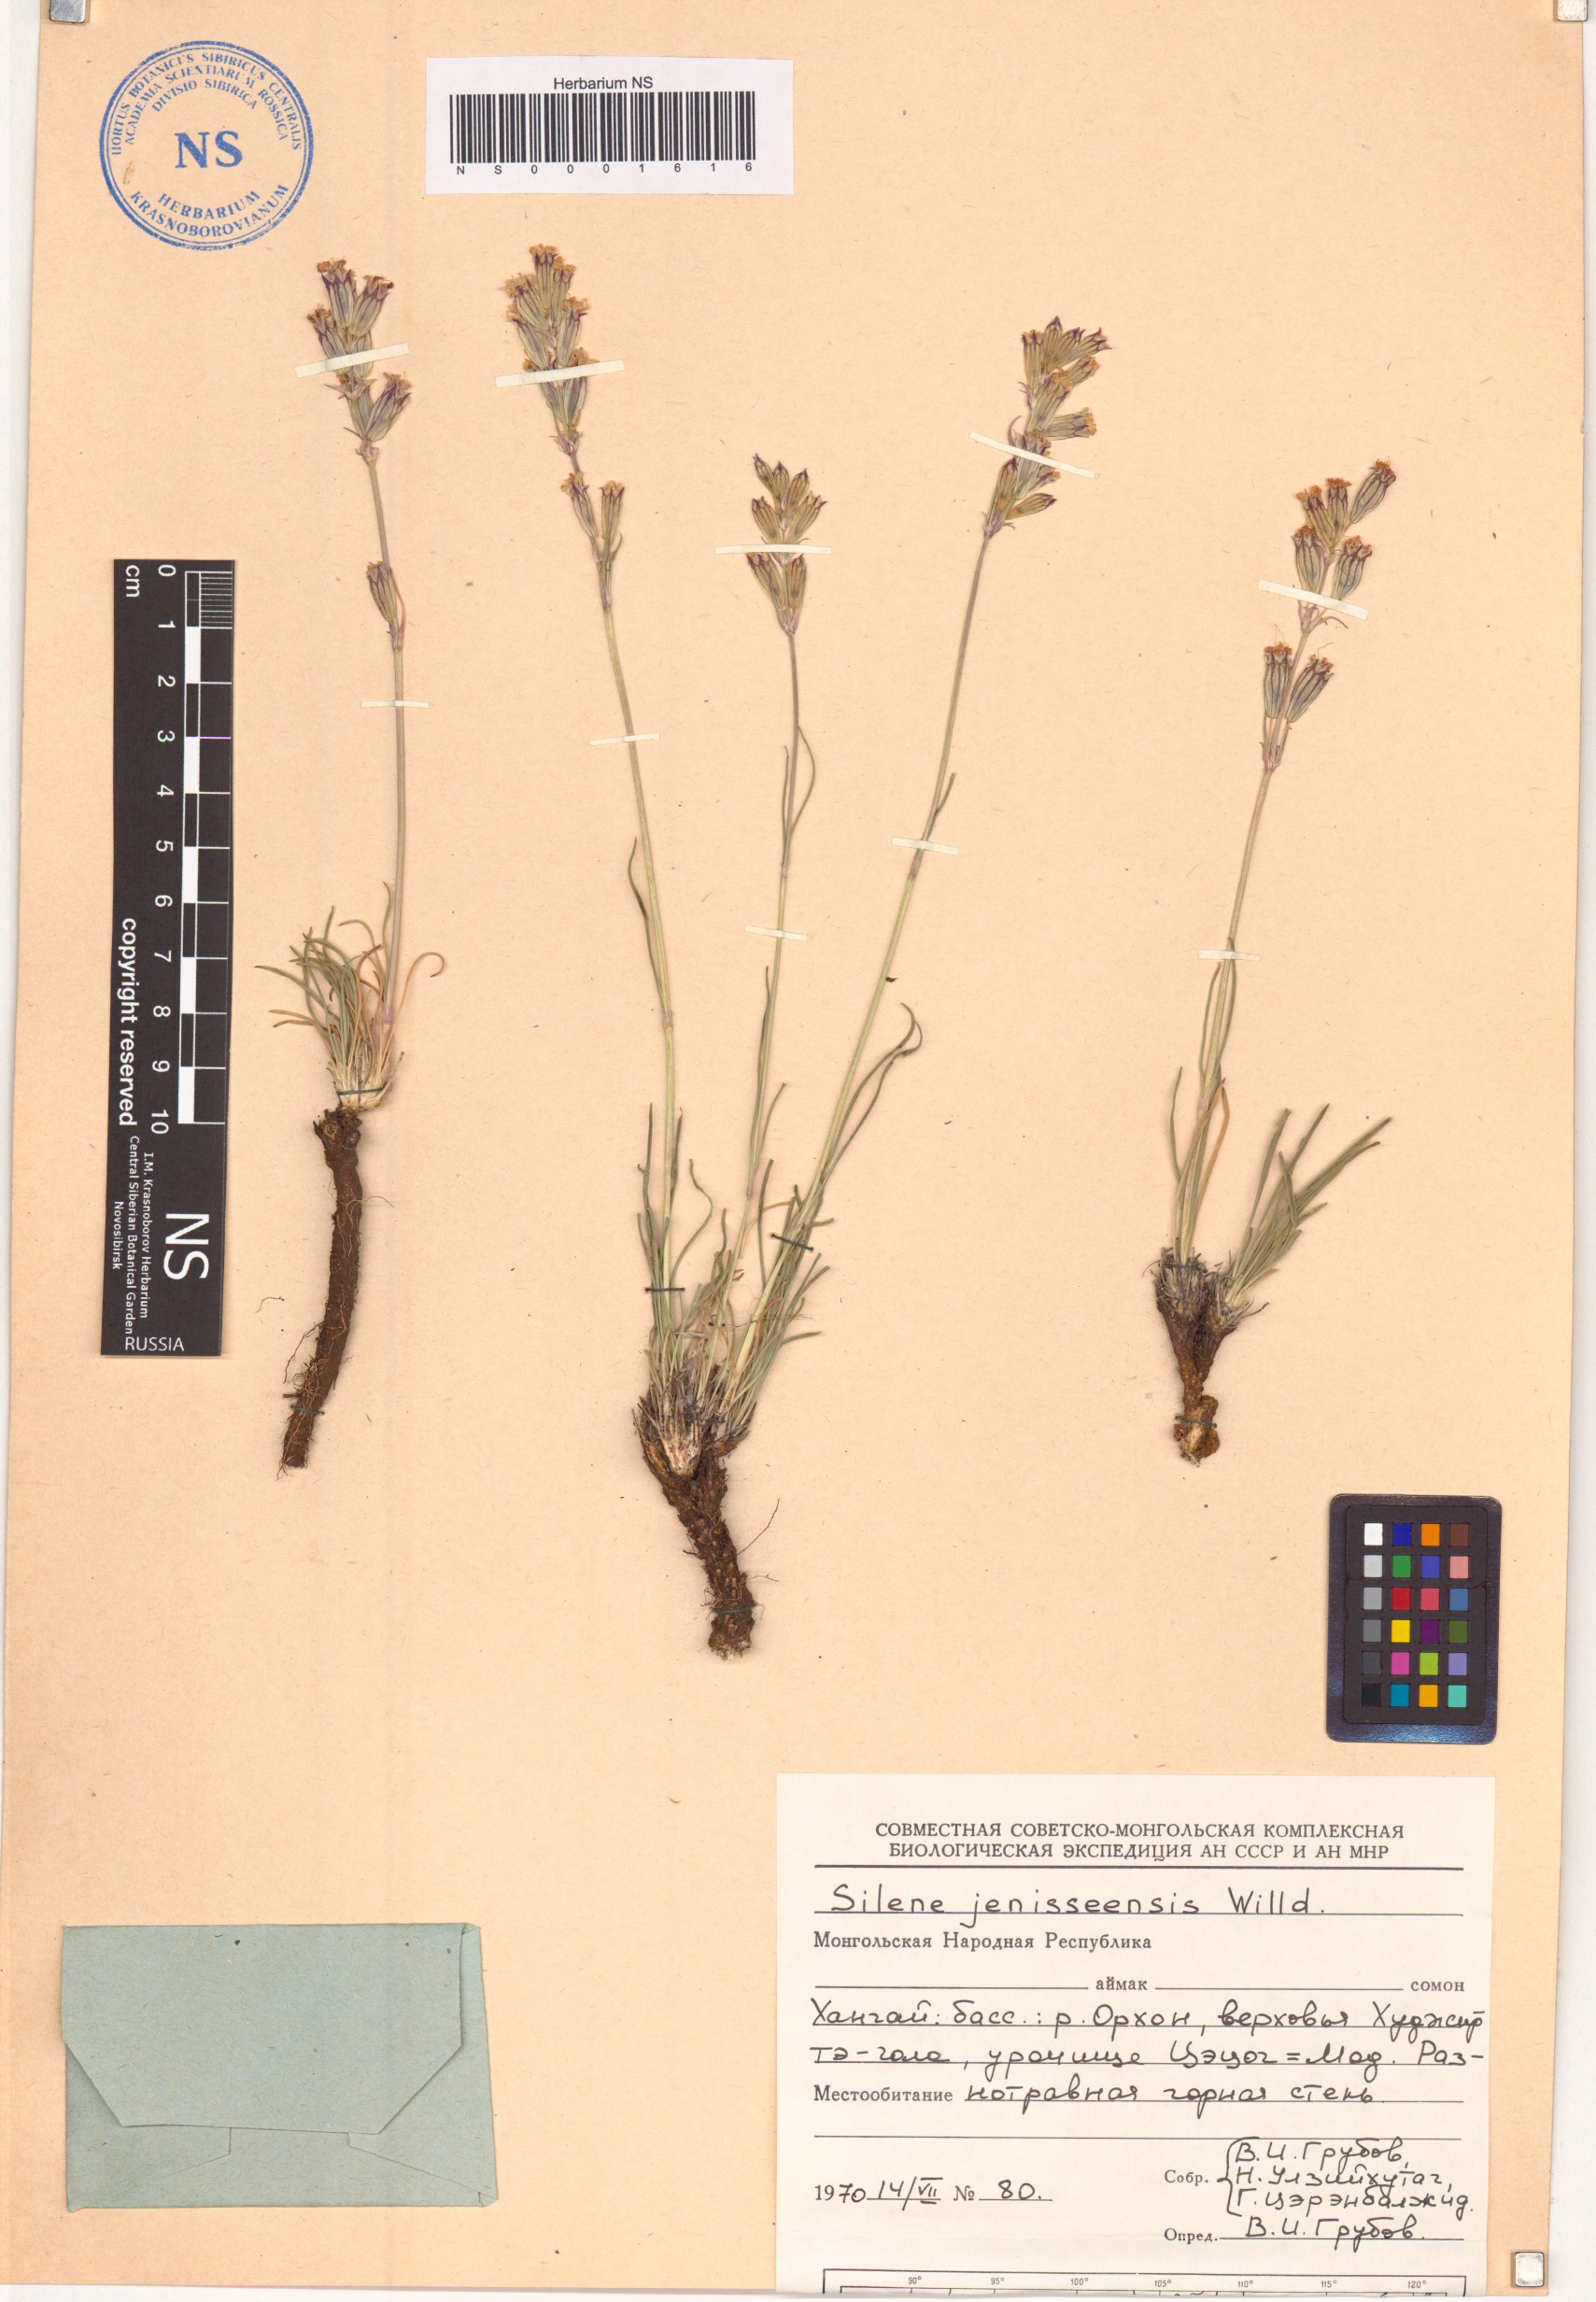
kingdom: Plantae
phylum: Tracheophyta
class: Magnoliopsida
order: Caryophyllales
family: Caryophyllaceae
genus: Silene
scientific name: Silene jeniseensis
